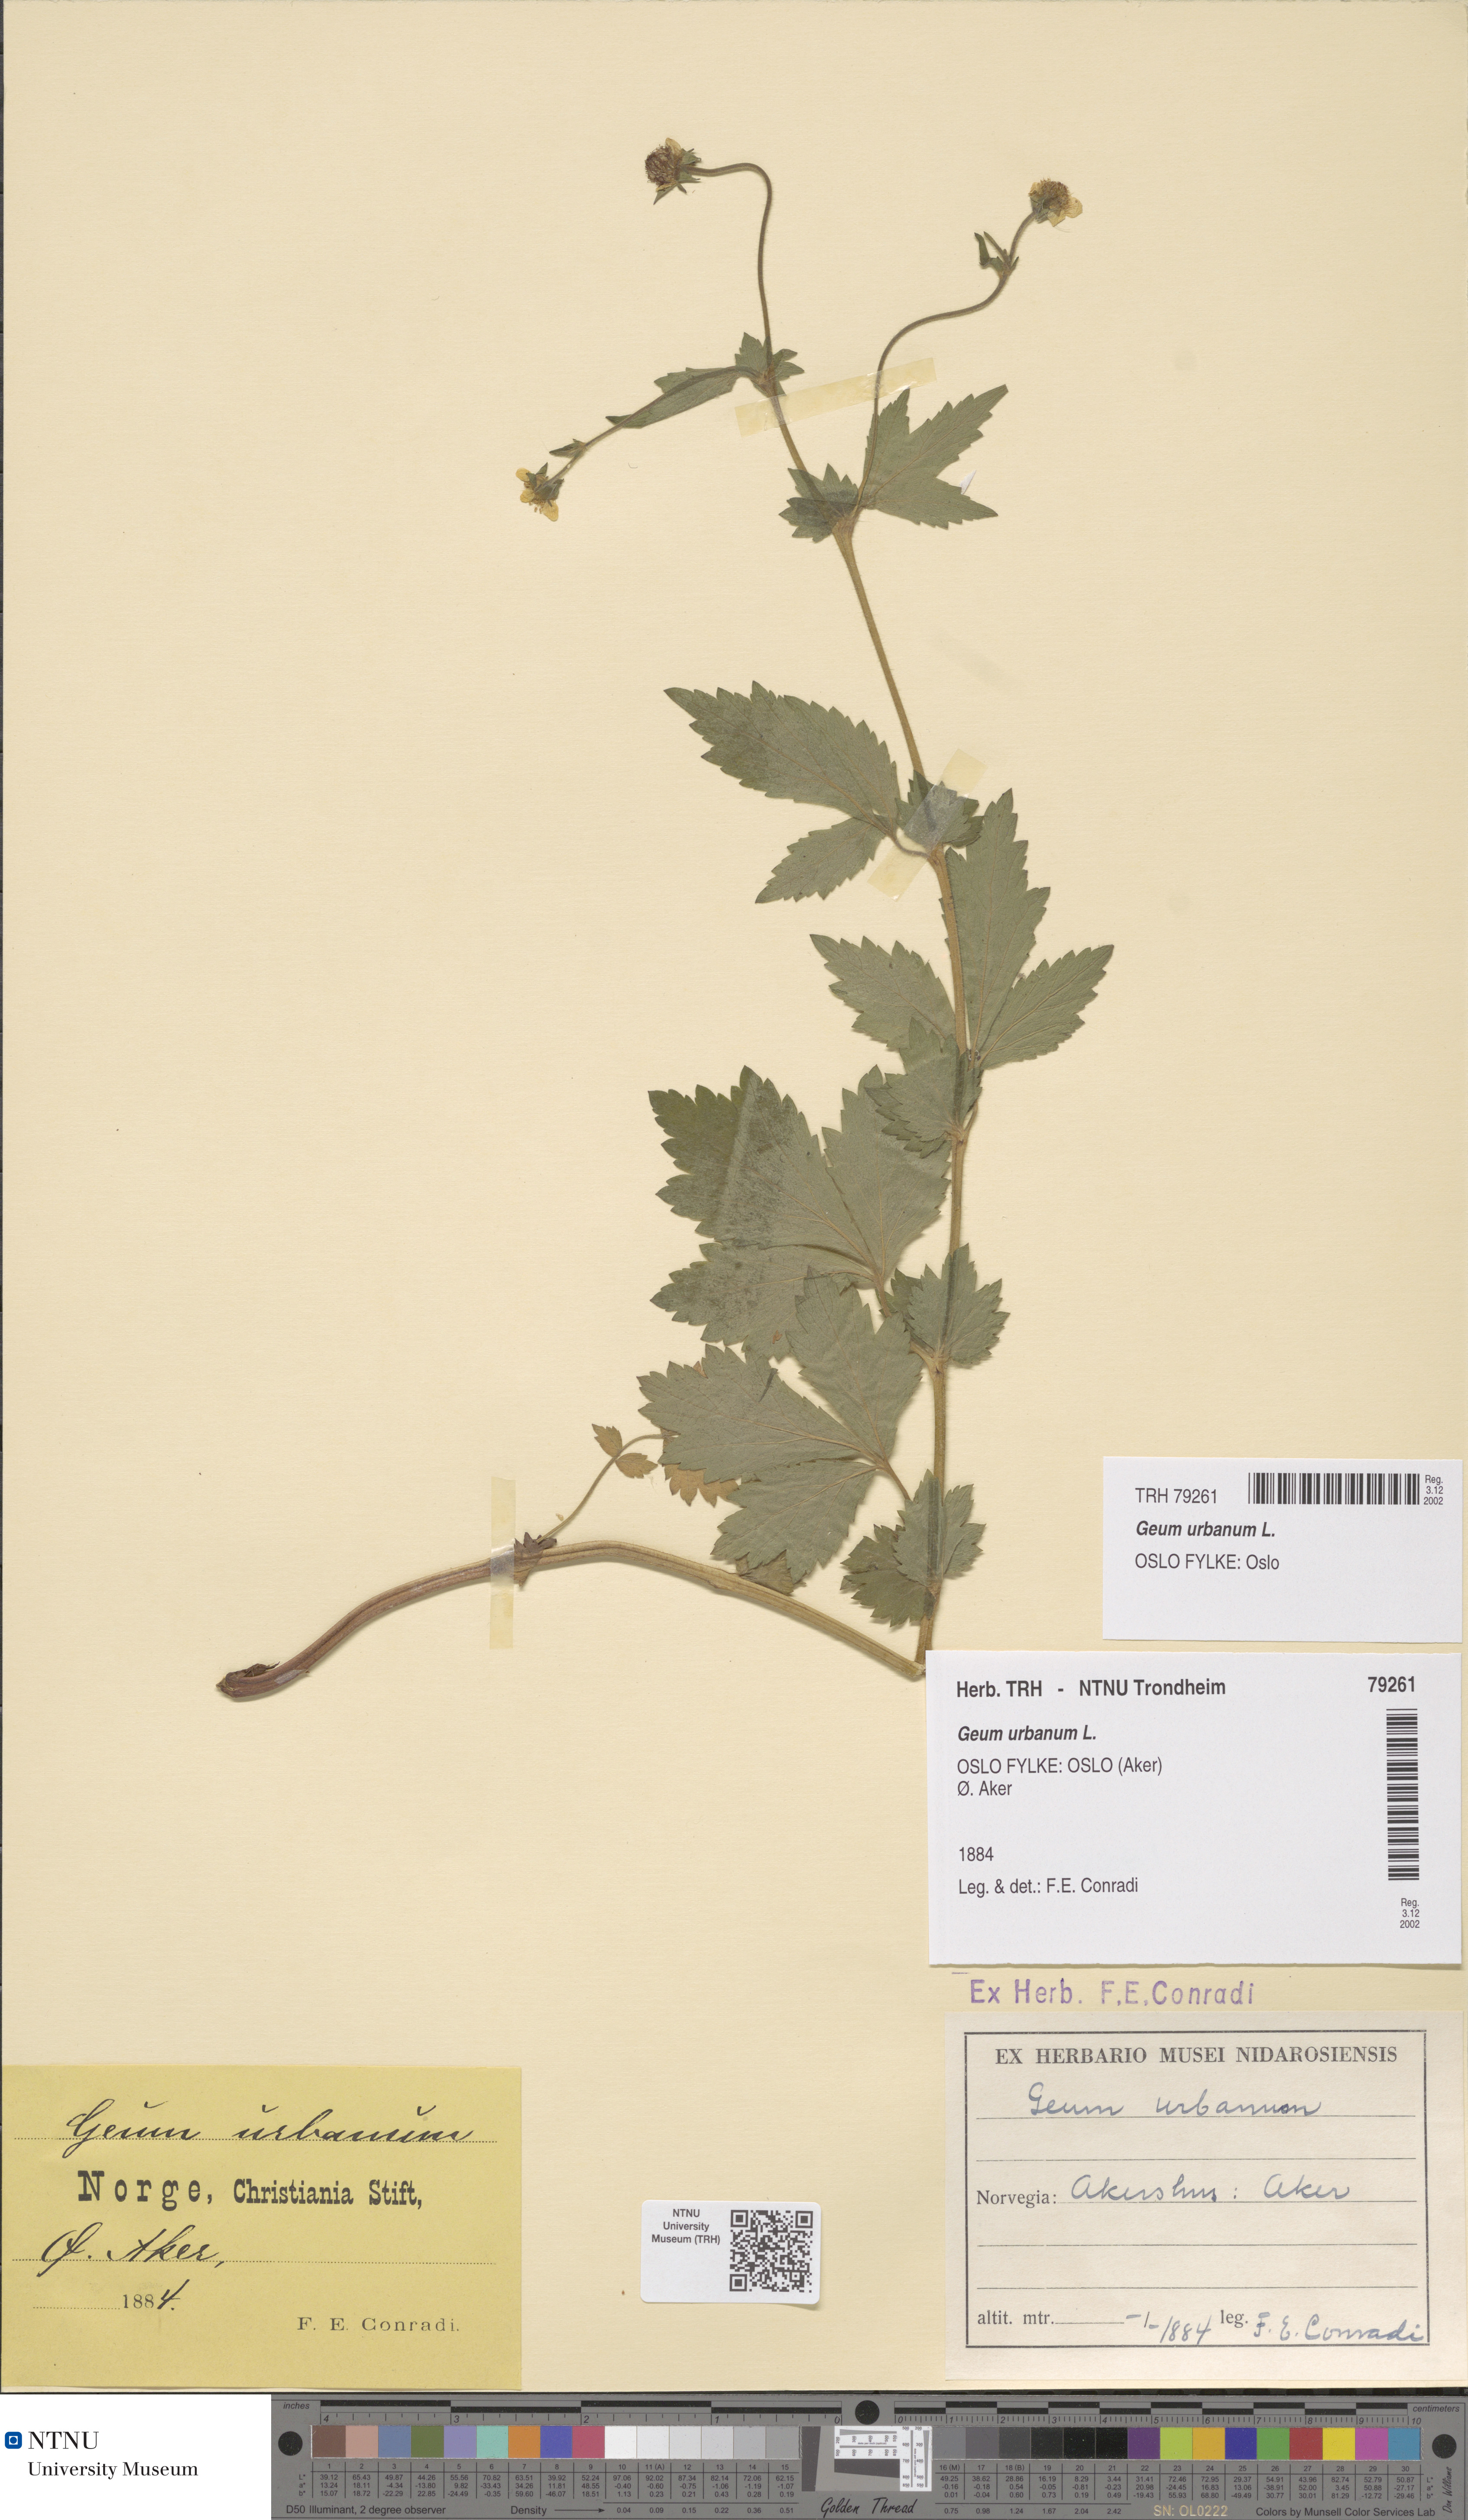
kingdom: Plantae
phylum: Tracheophyta
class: Magnoliopsida
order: Rosales
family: Rosaceae
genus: Geum
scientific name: Geum urbanum
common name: Wood avens
